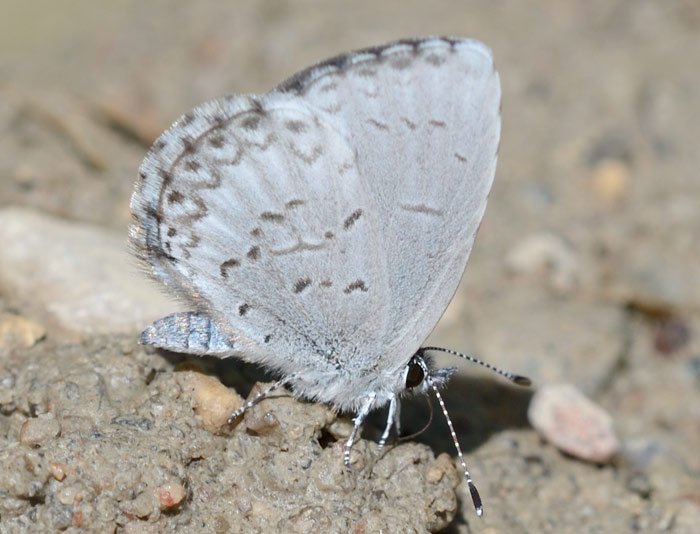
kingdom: Animalia
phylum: Arthropoda
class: Insecta
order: Lepidoptera
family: Lycaenidae
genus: Celastrina
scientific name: Celastrina
